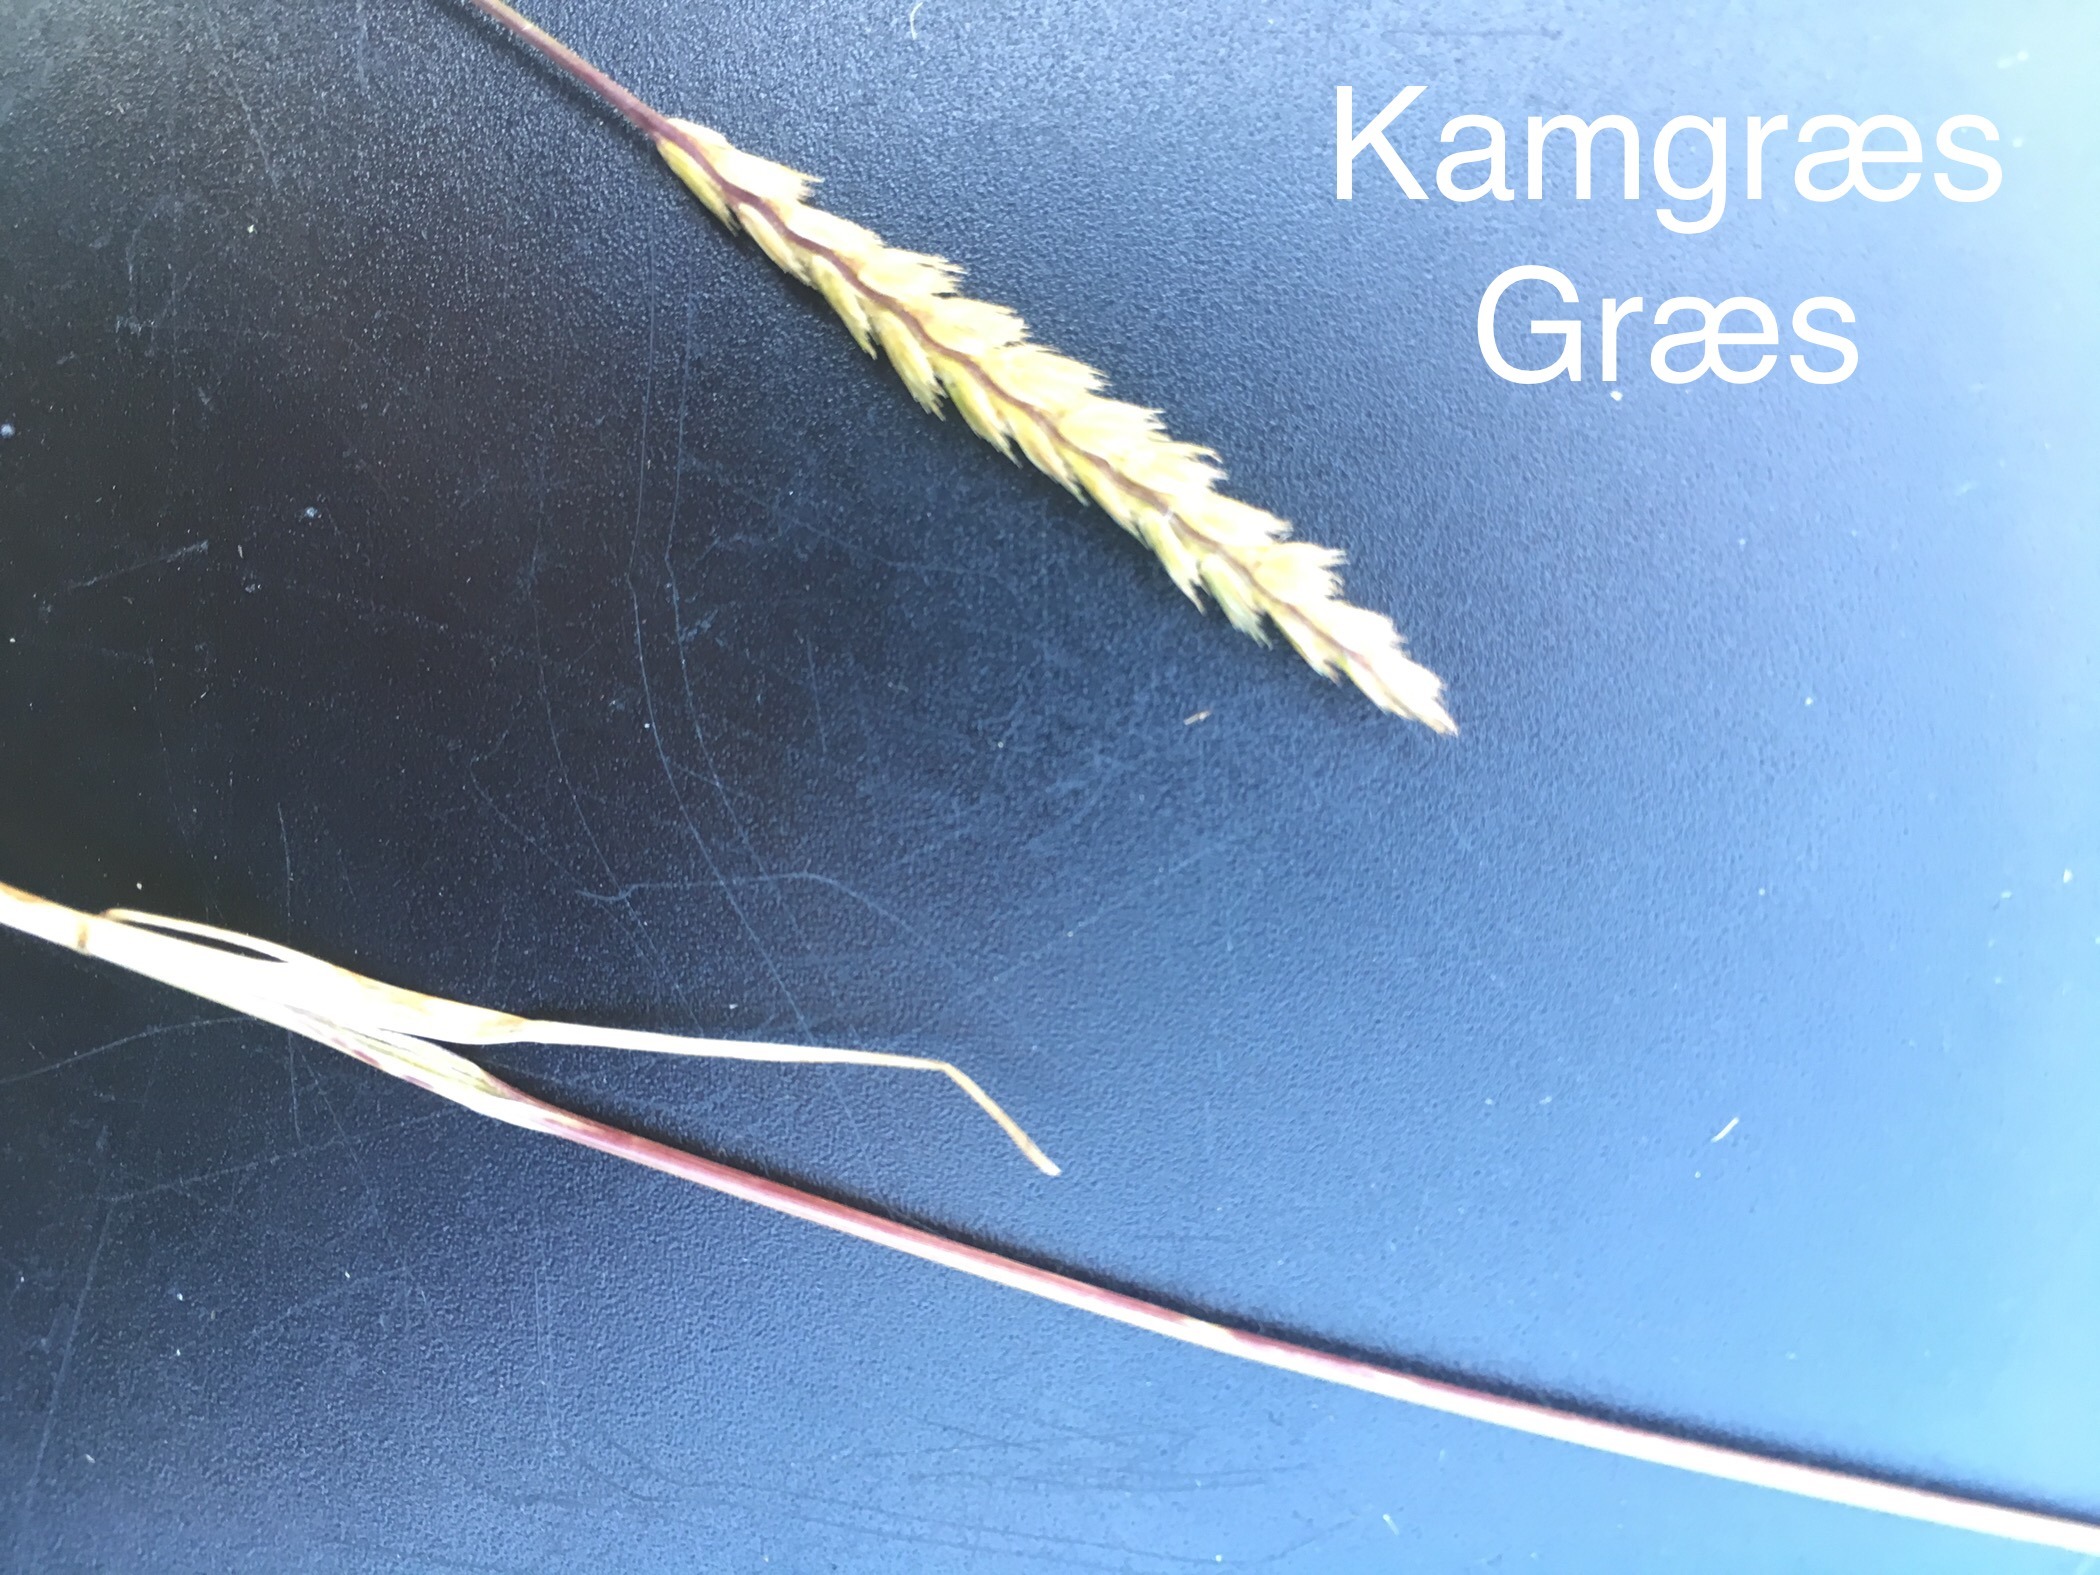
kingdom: Plantae
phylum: Tracheophyta
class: Liliopsida
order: Poales
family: Poaceae
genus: Cynosurus
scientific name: Cynosurus cristatus
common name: Kamgræs
